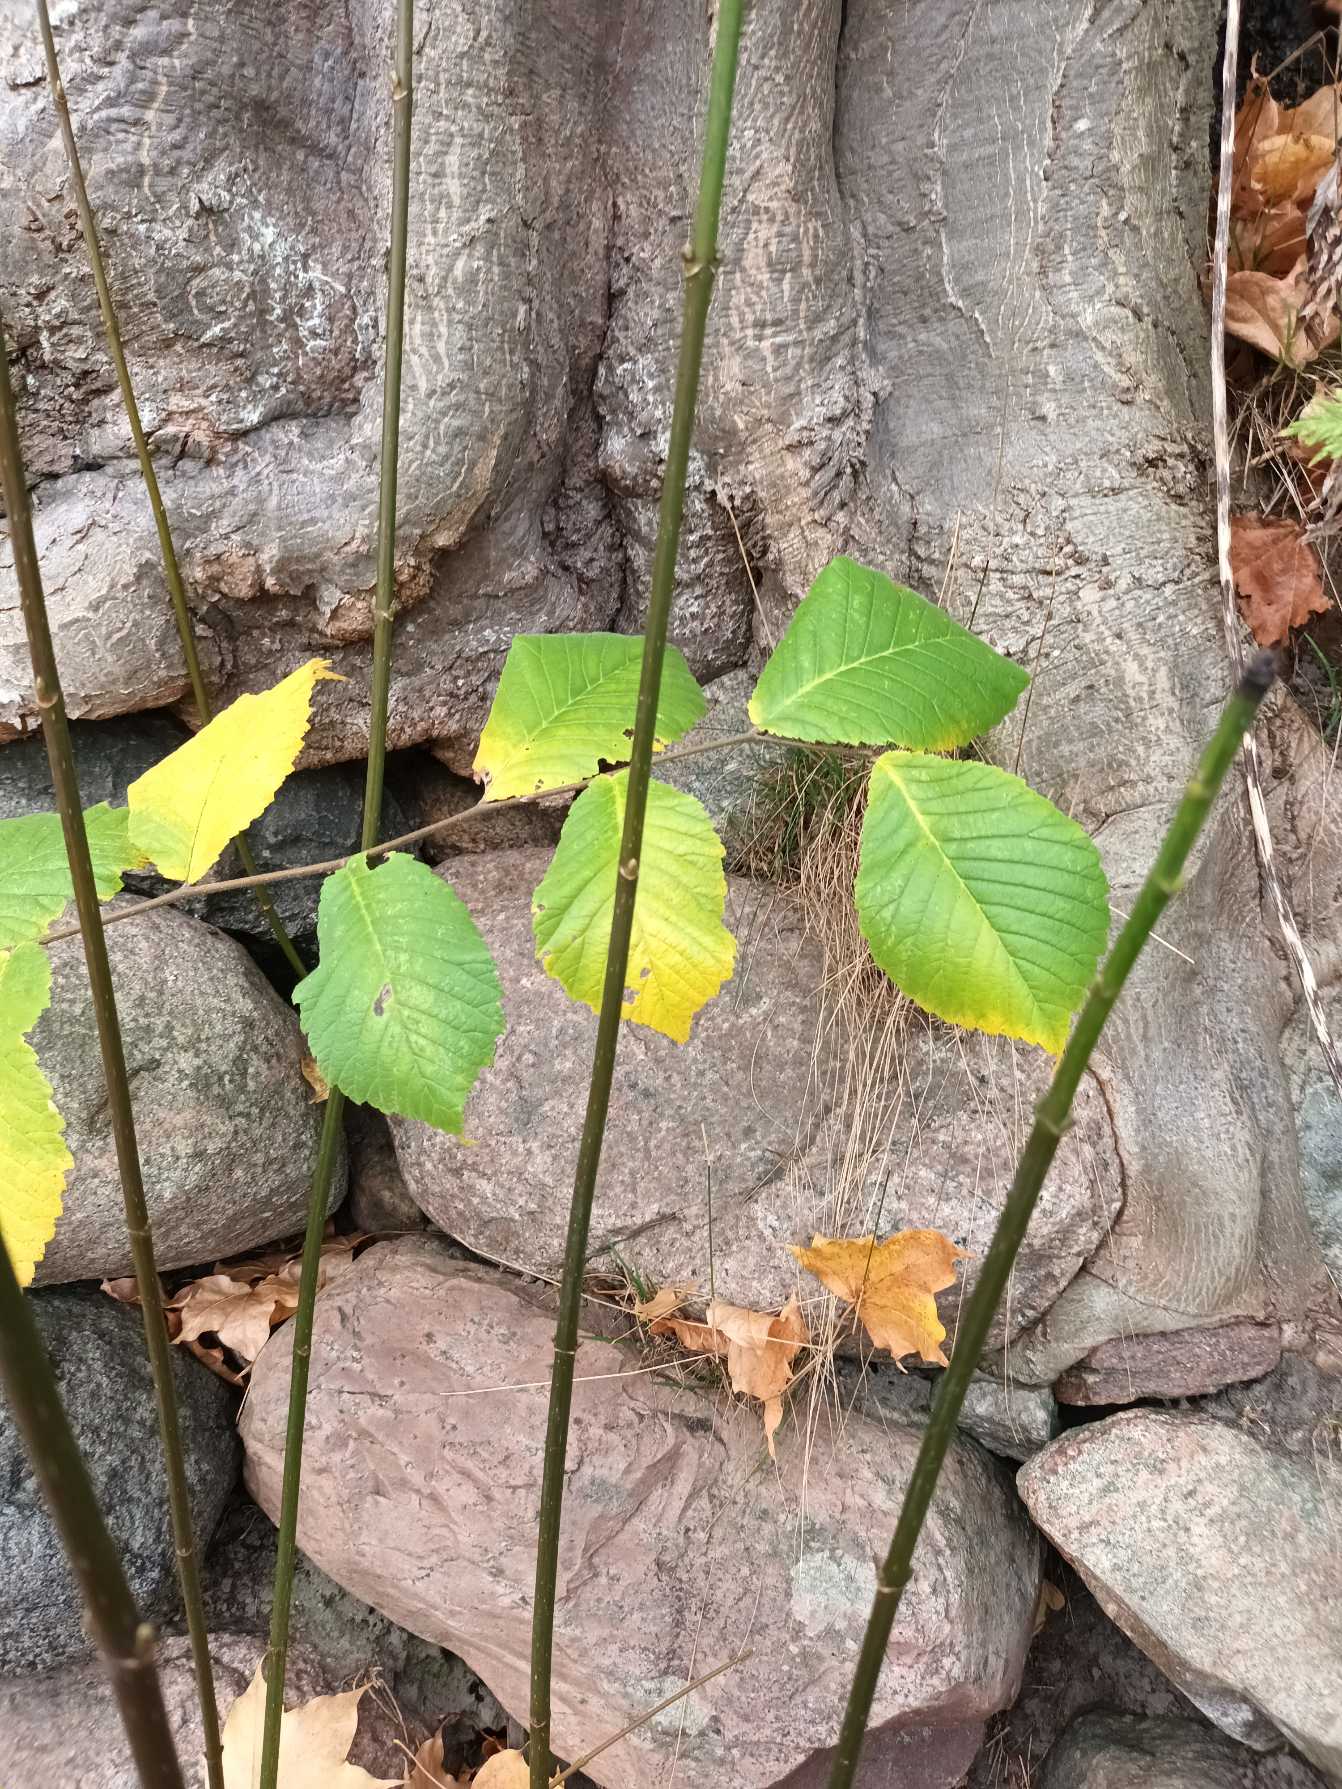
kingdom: Plantae
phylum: Tracheophyta
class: Magnoliopsida
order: Rosales
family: Ulmaceae
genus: Ulmus
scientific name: Ulmus glabra
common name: Skov-elm/storbladet elm
